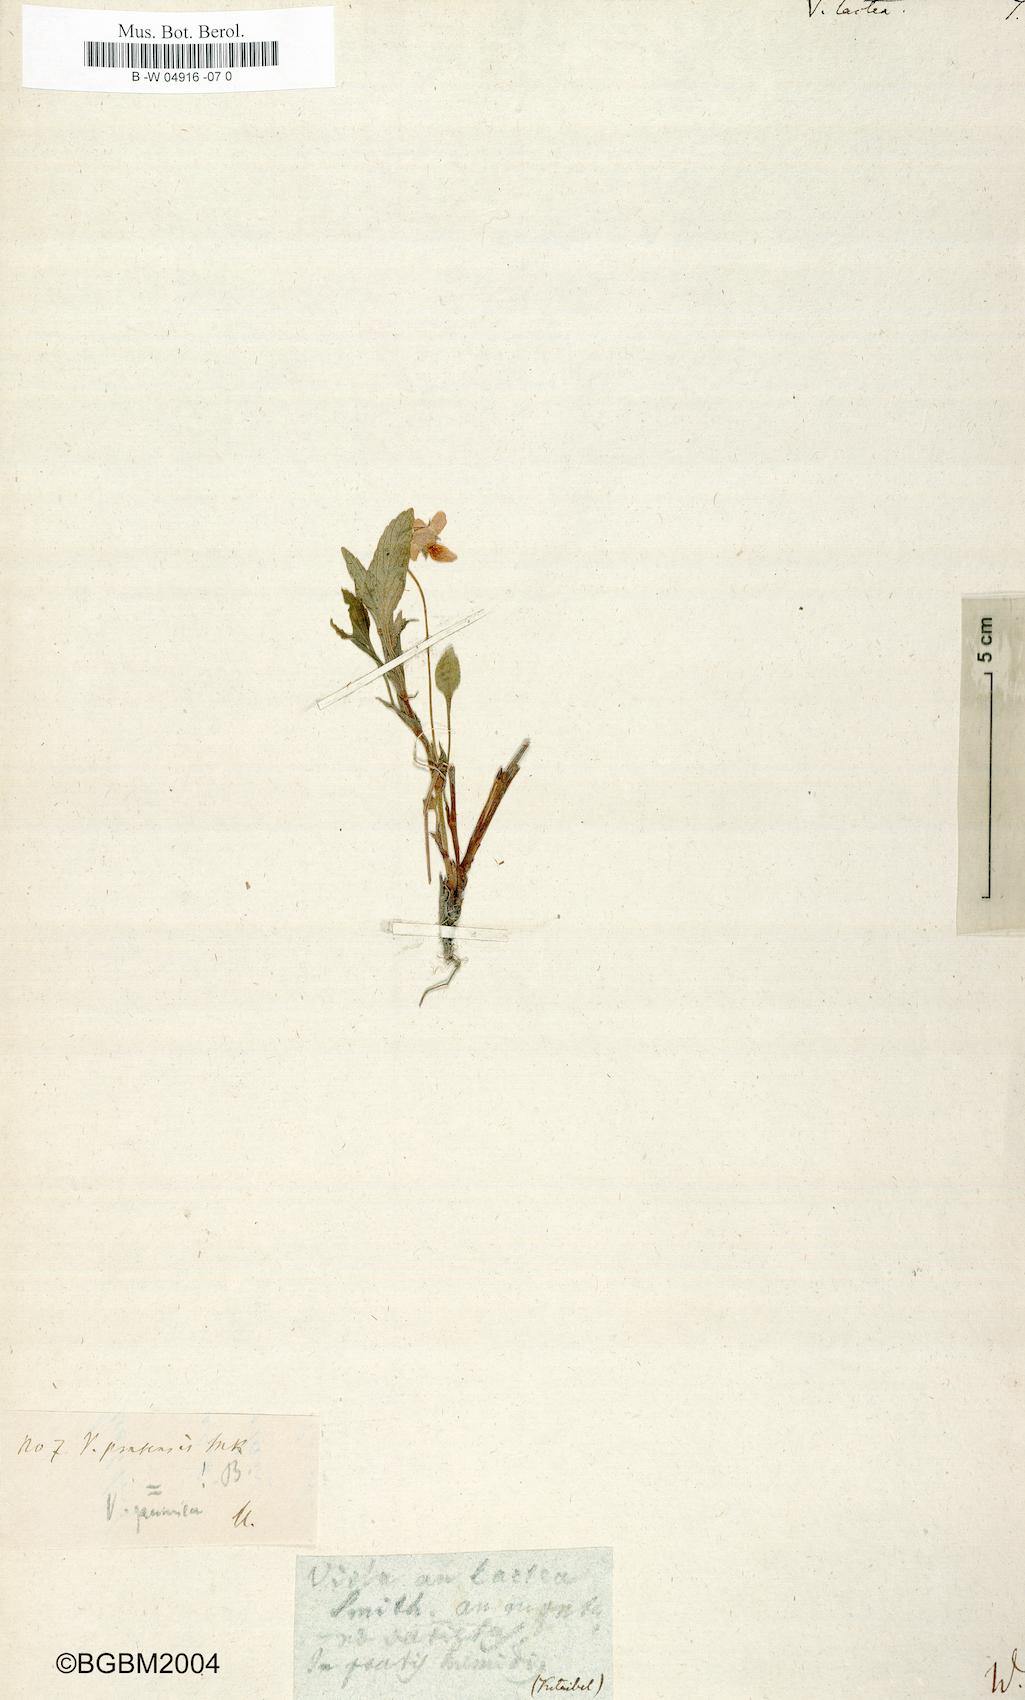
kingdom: Plantae
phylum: Tracheophyta
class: Magnoliopsida
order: Malpighiales
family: Violaceae
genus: Viola
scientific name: Viola lactea
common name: Pale dog-violet
